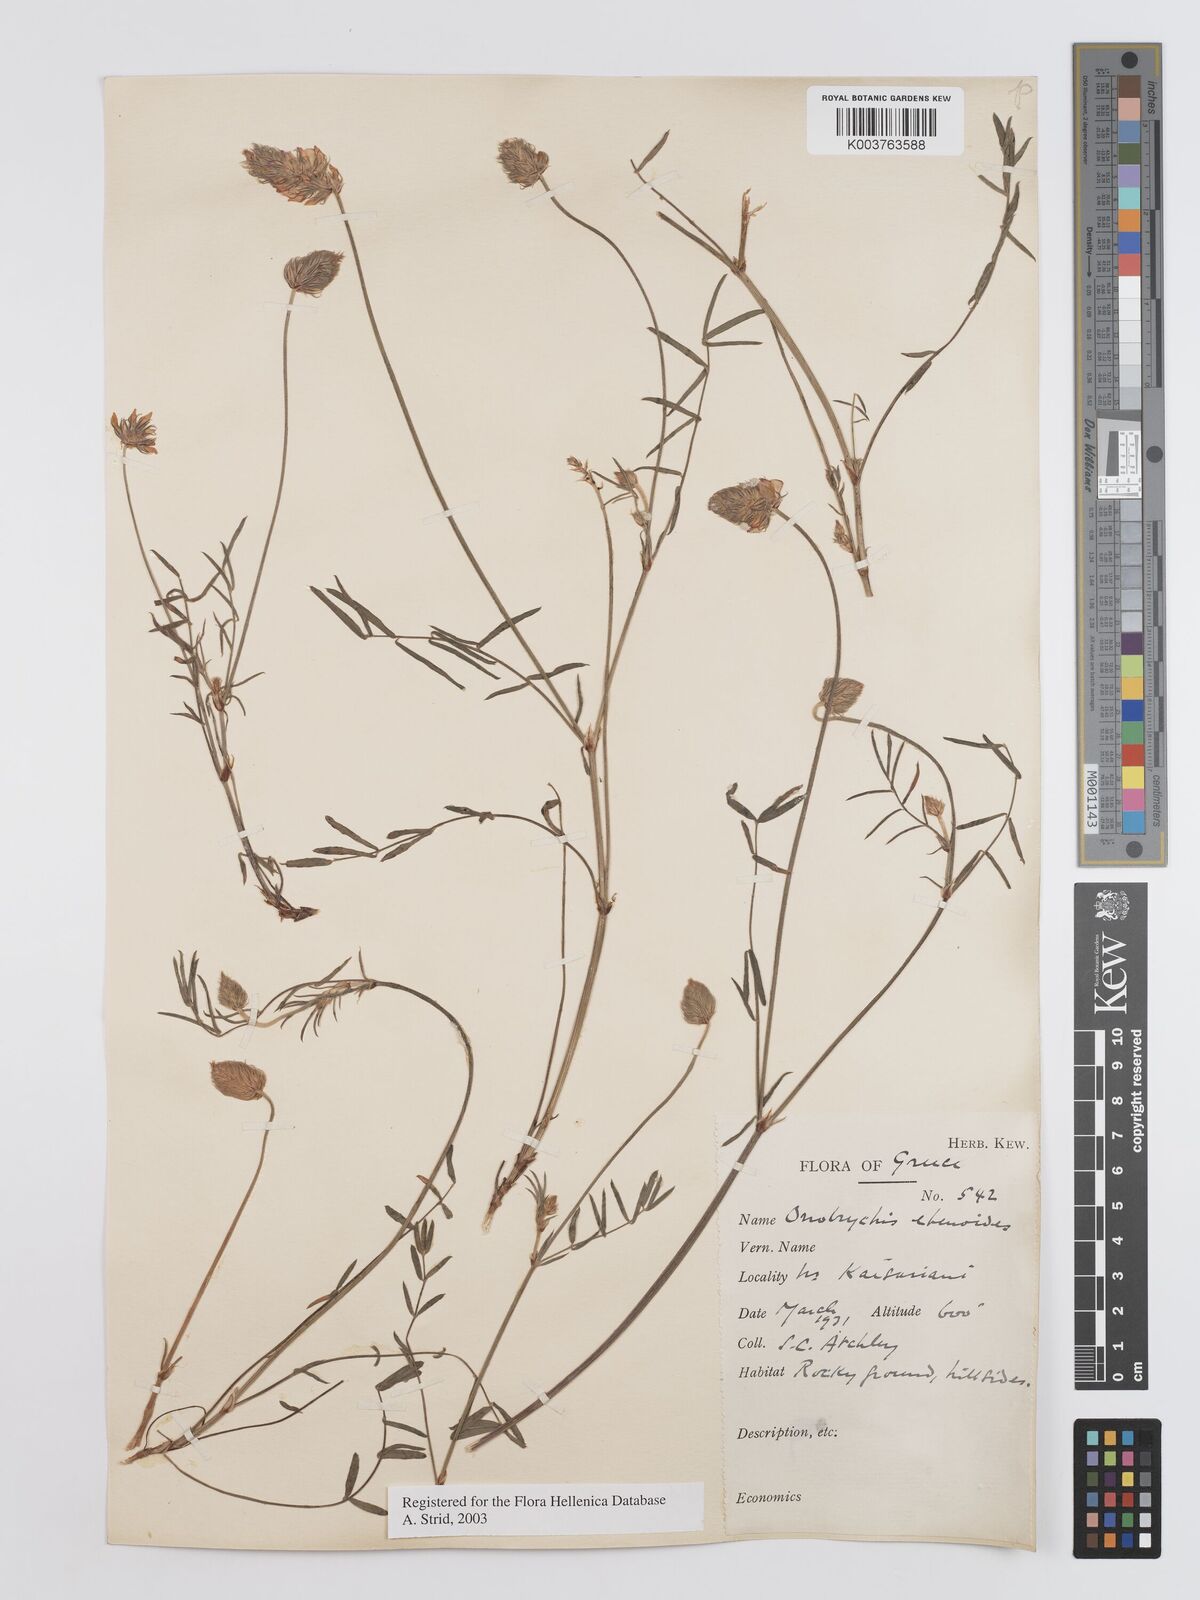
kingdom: Plantae
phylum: Tracheophyta
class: Magnoliopsida
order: Fabales
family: Fabaceae
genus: Onobrychis
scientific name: Onobrychis ebenoides
